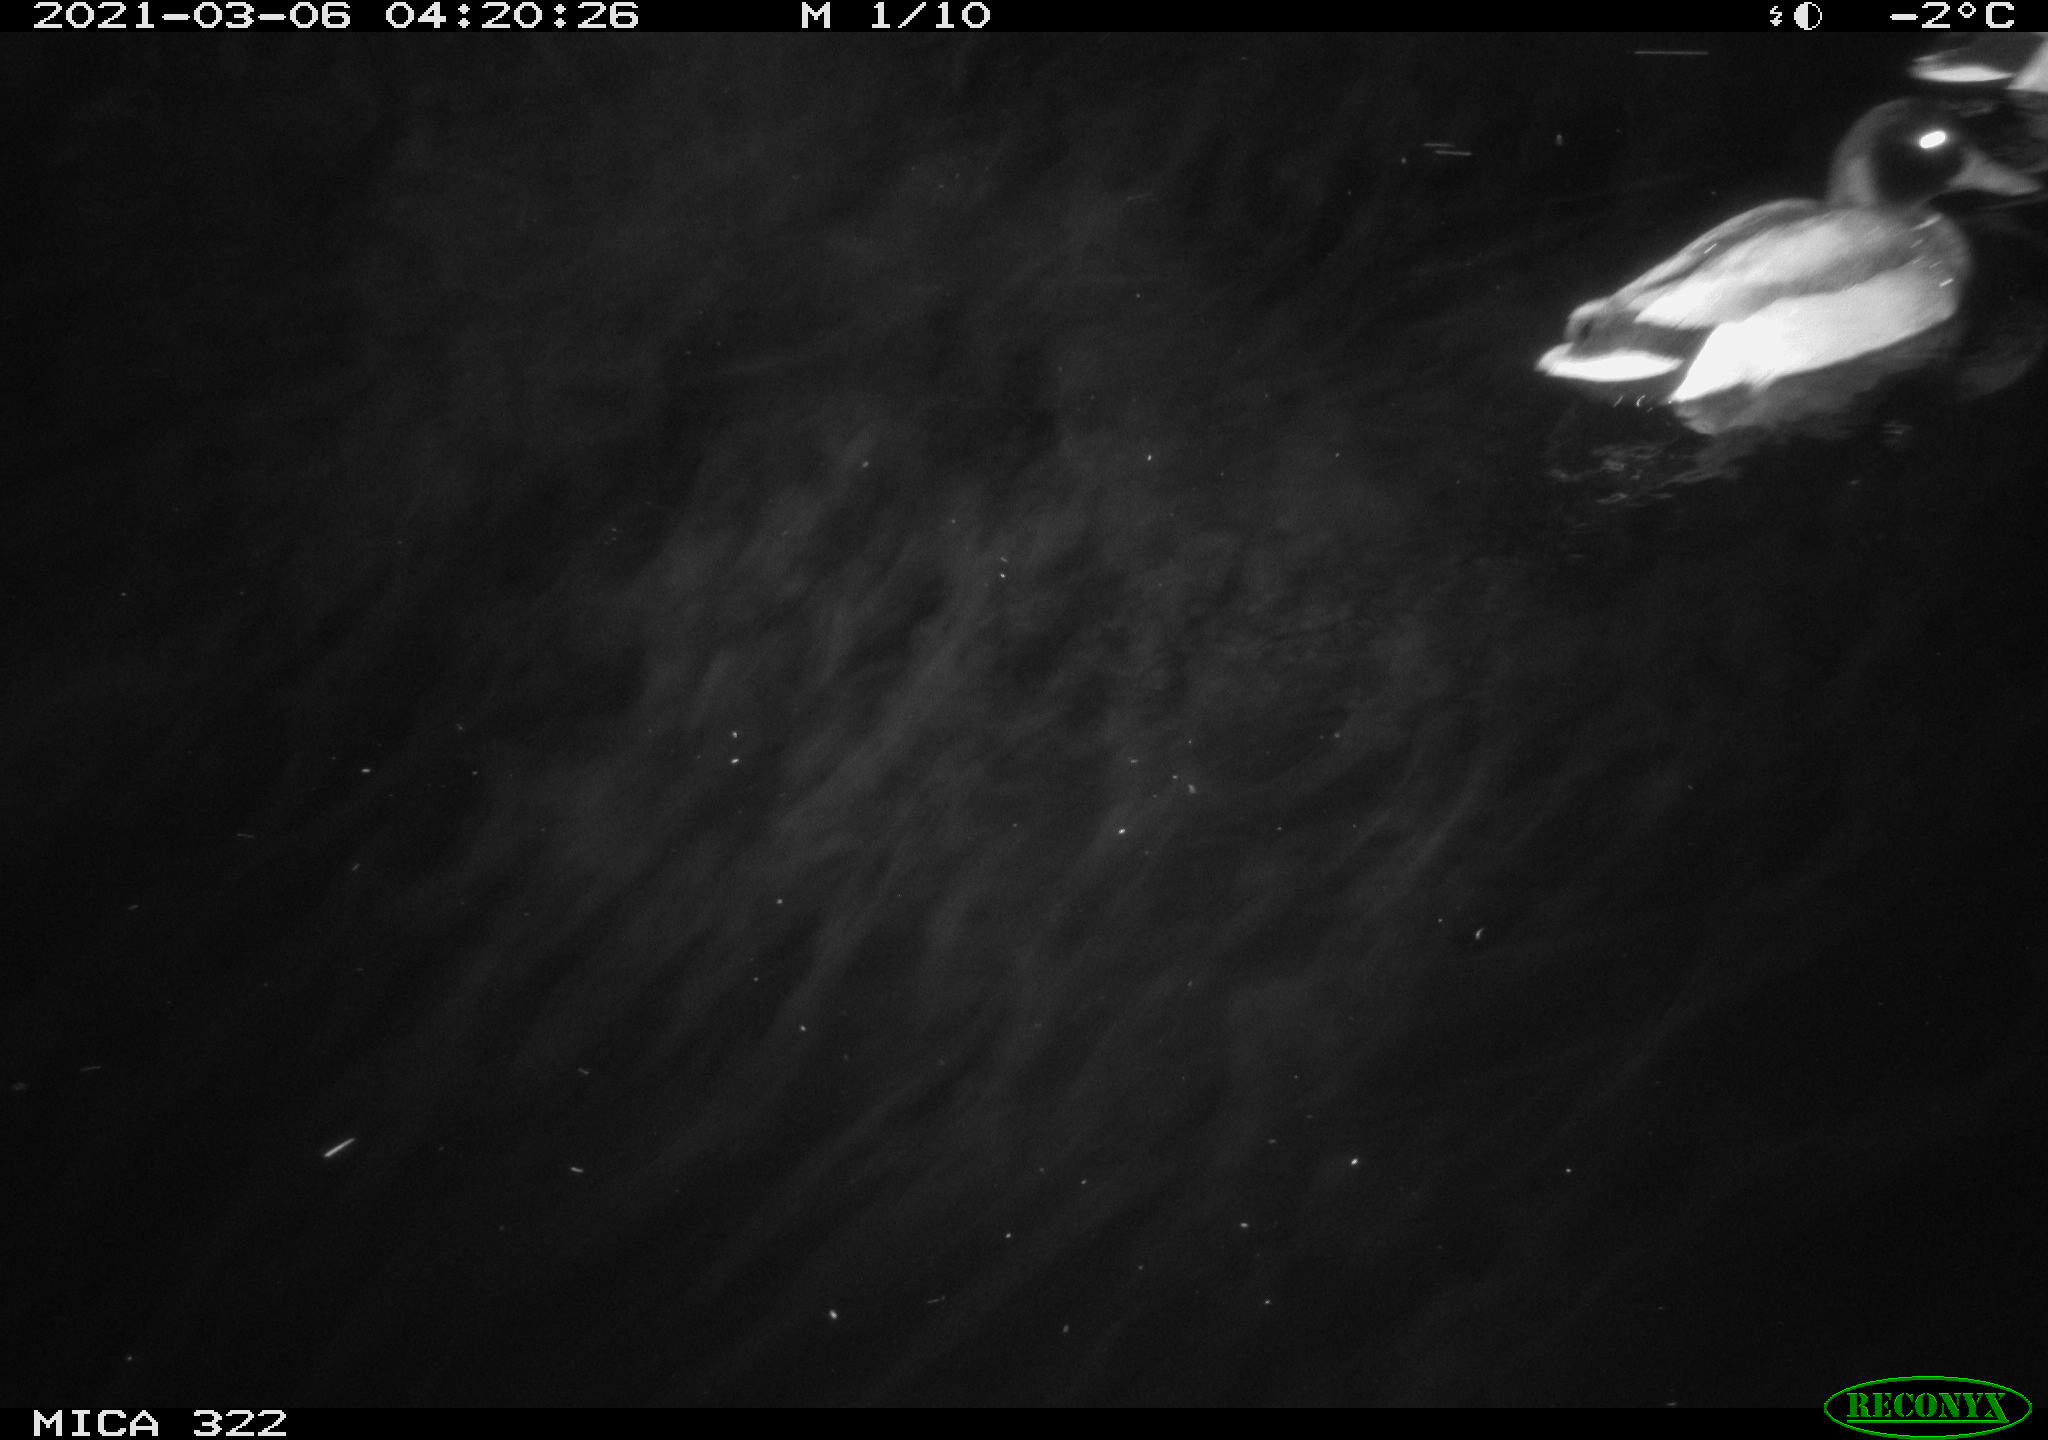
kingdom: Animalia
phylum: Chordata
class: Aves
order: Anseriformes
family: Anatidae
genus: Anas
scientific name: Anas platyrhynchos
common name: Mallard
